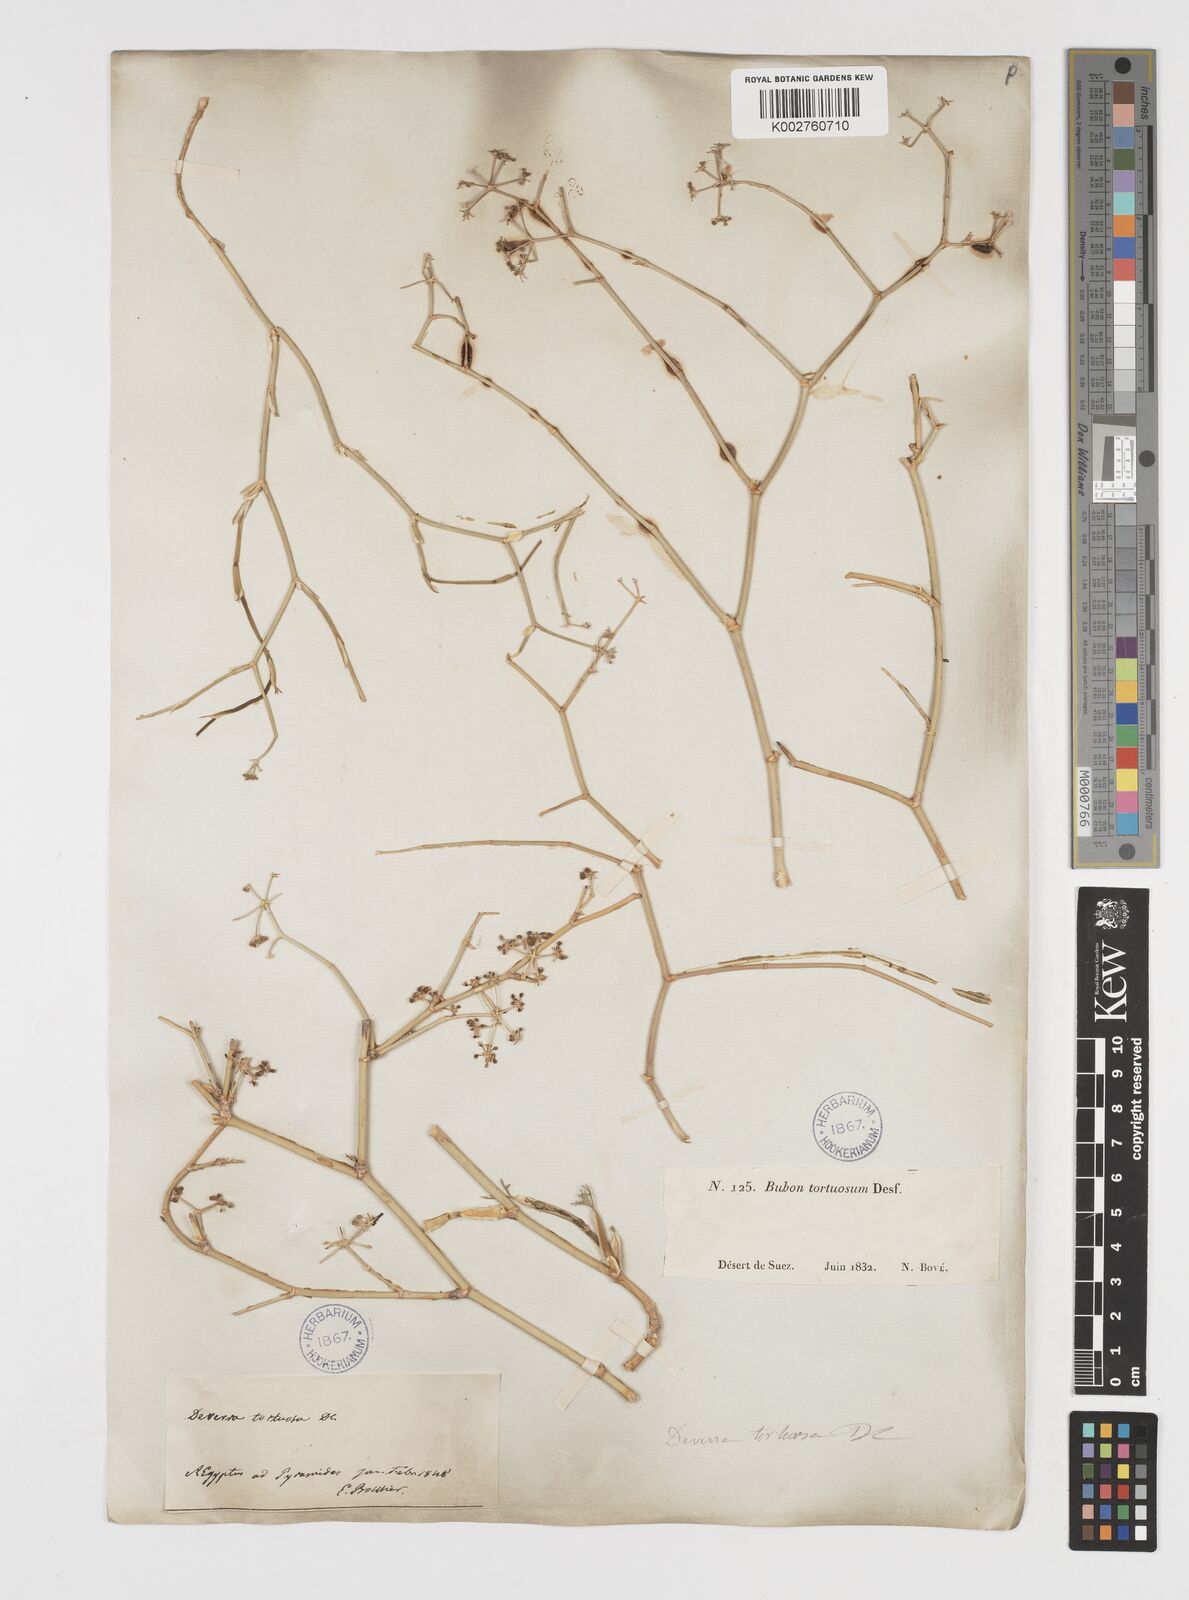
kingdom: Plantae
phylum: Tracheophyta
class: Magnoliopsida
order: Apiales
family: Apiaceae
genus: Deverra
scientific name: Deverra denudata
